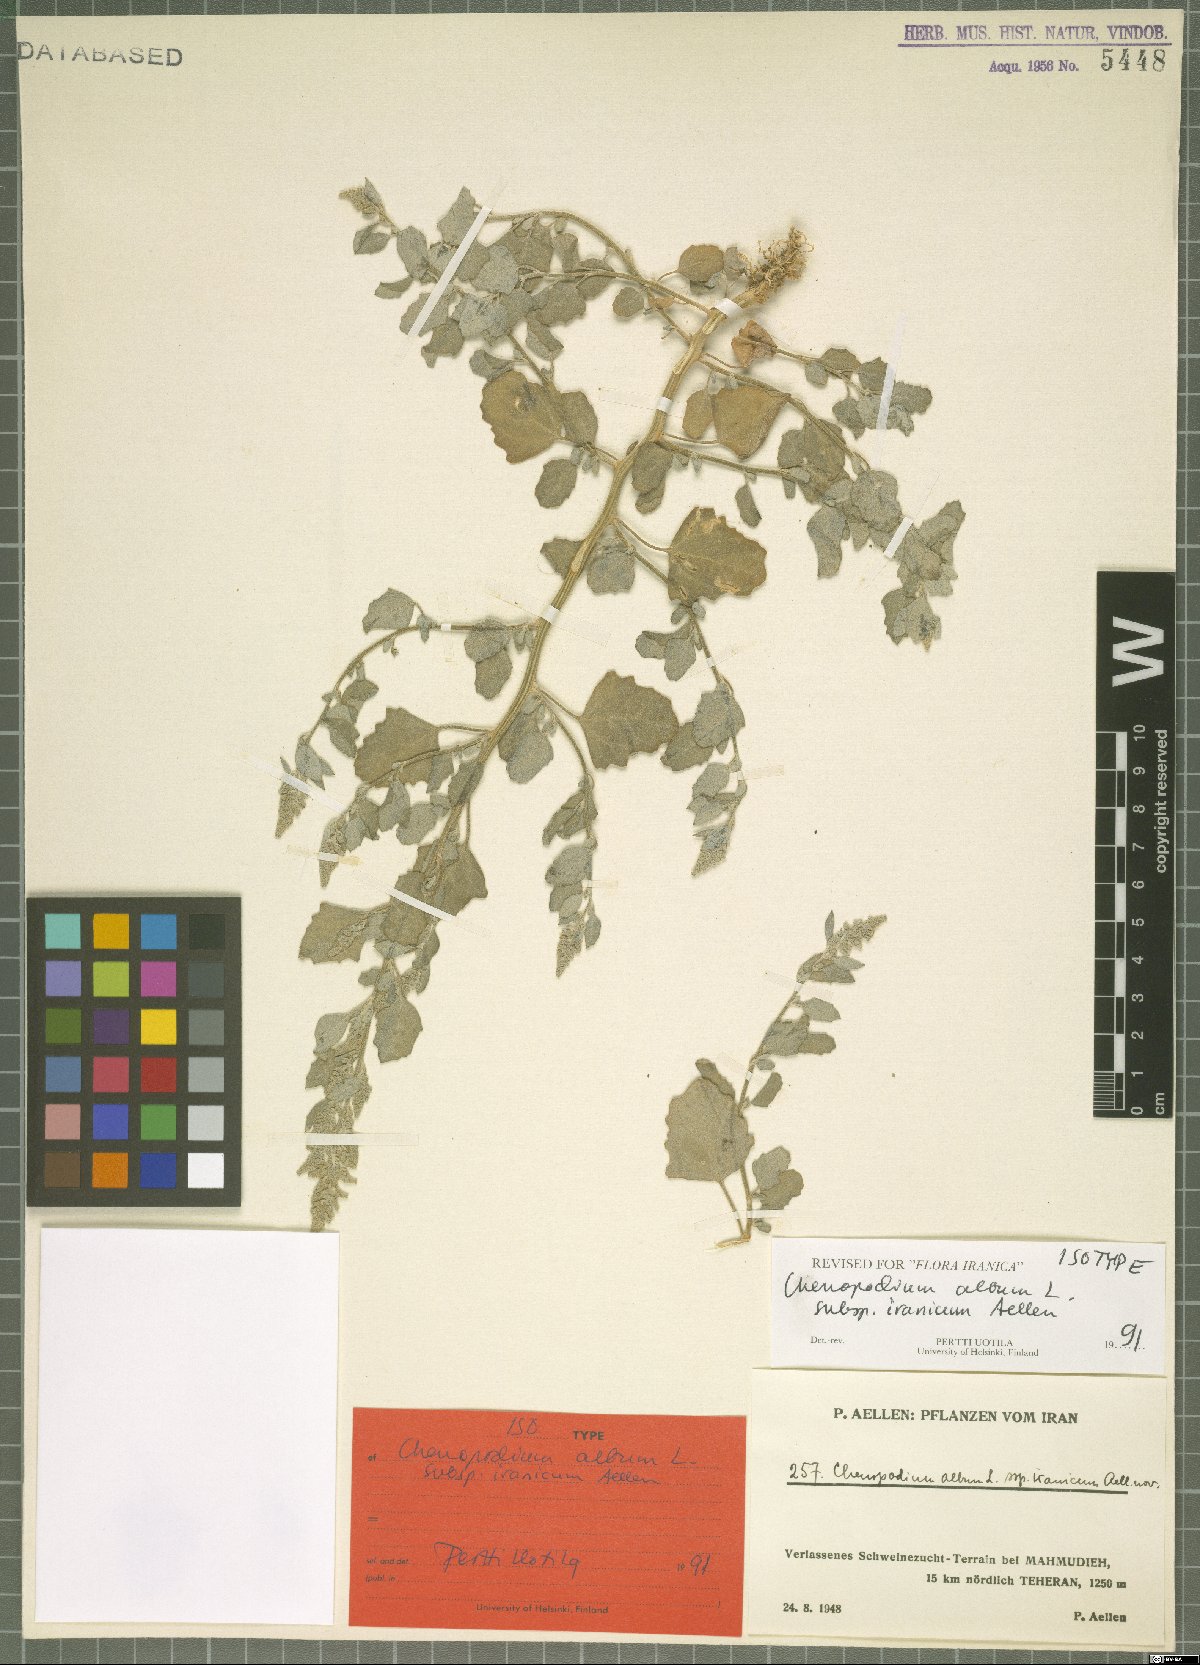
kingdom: Plantae
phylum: Tracheophyta
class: Magnoliopsida
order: Caryophyllales
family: Amaranthaceae
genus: Chenopodium
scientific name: Chenopodium iranicum
